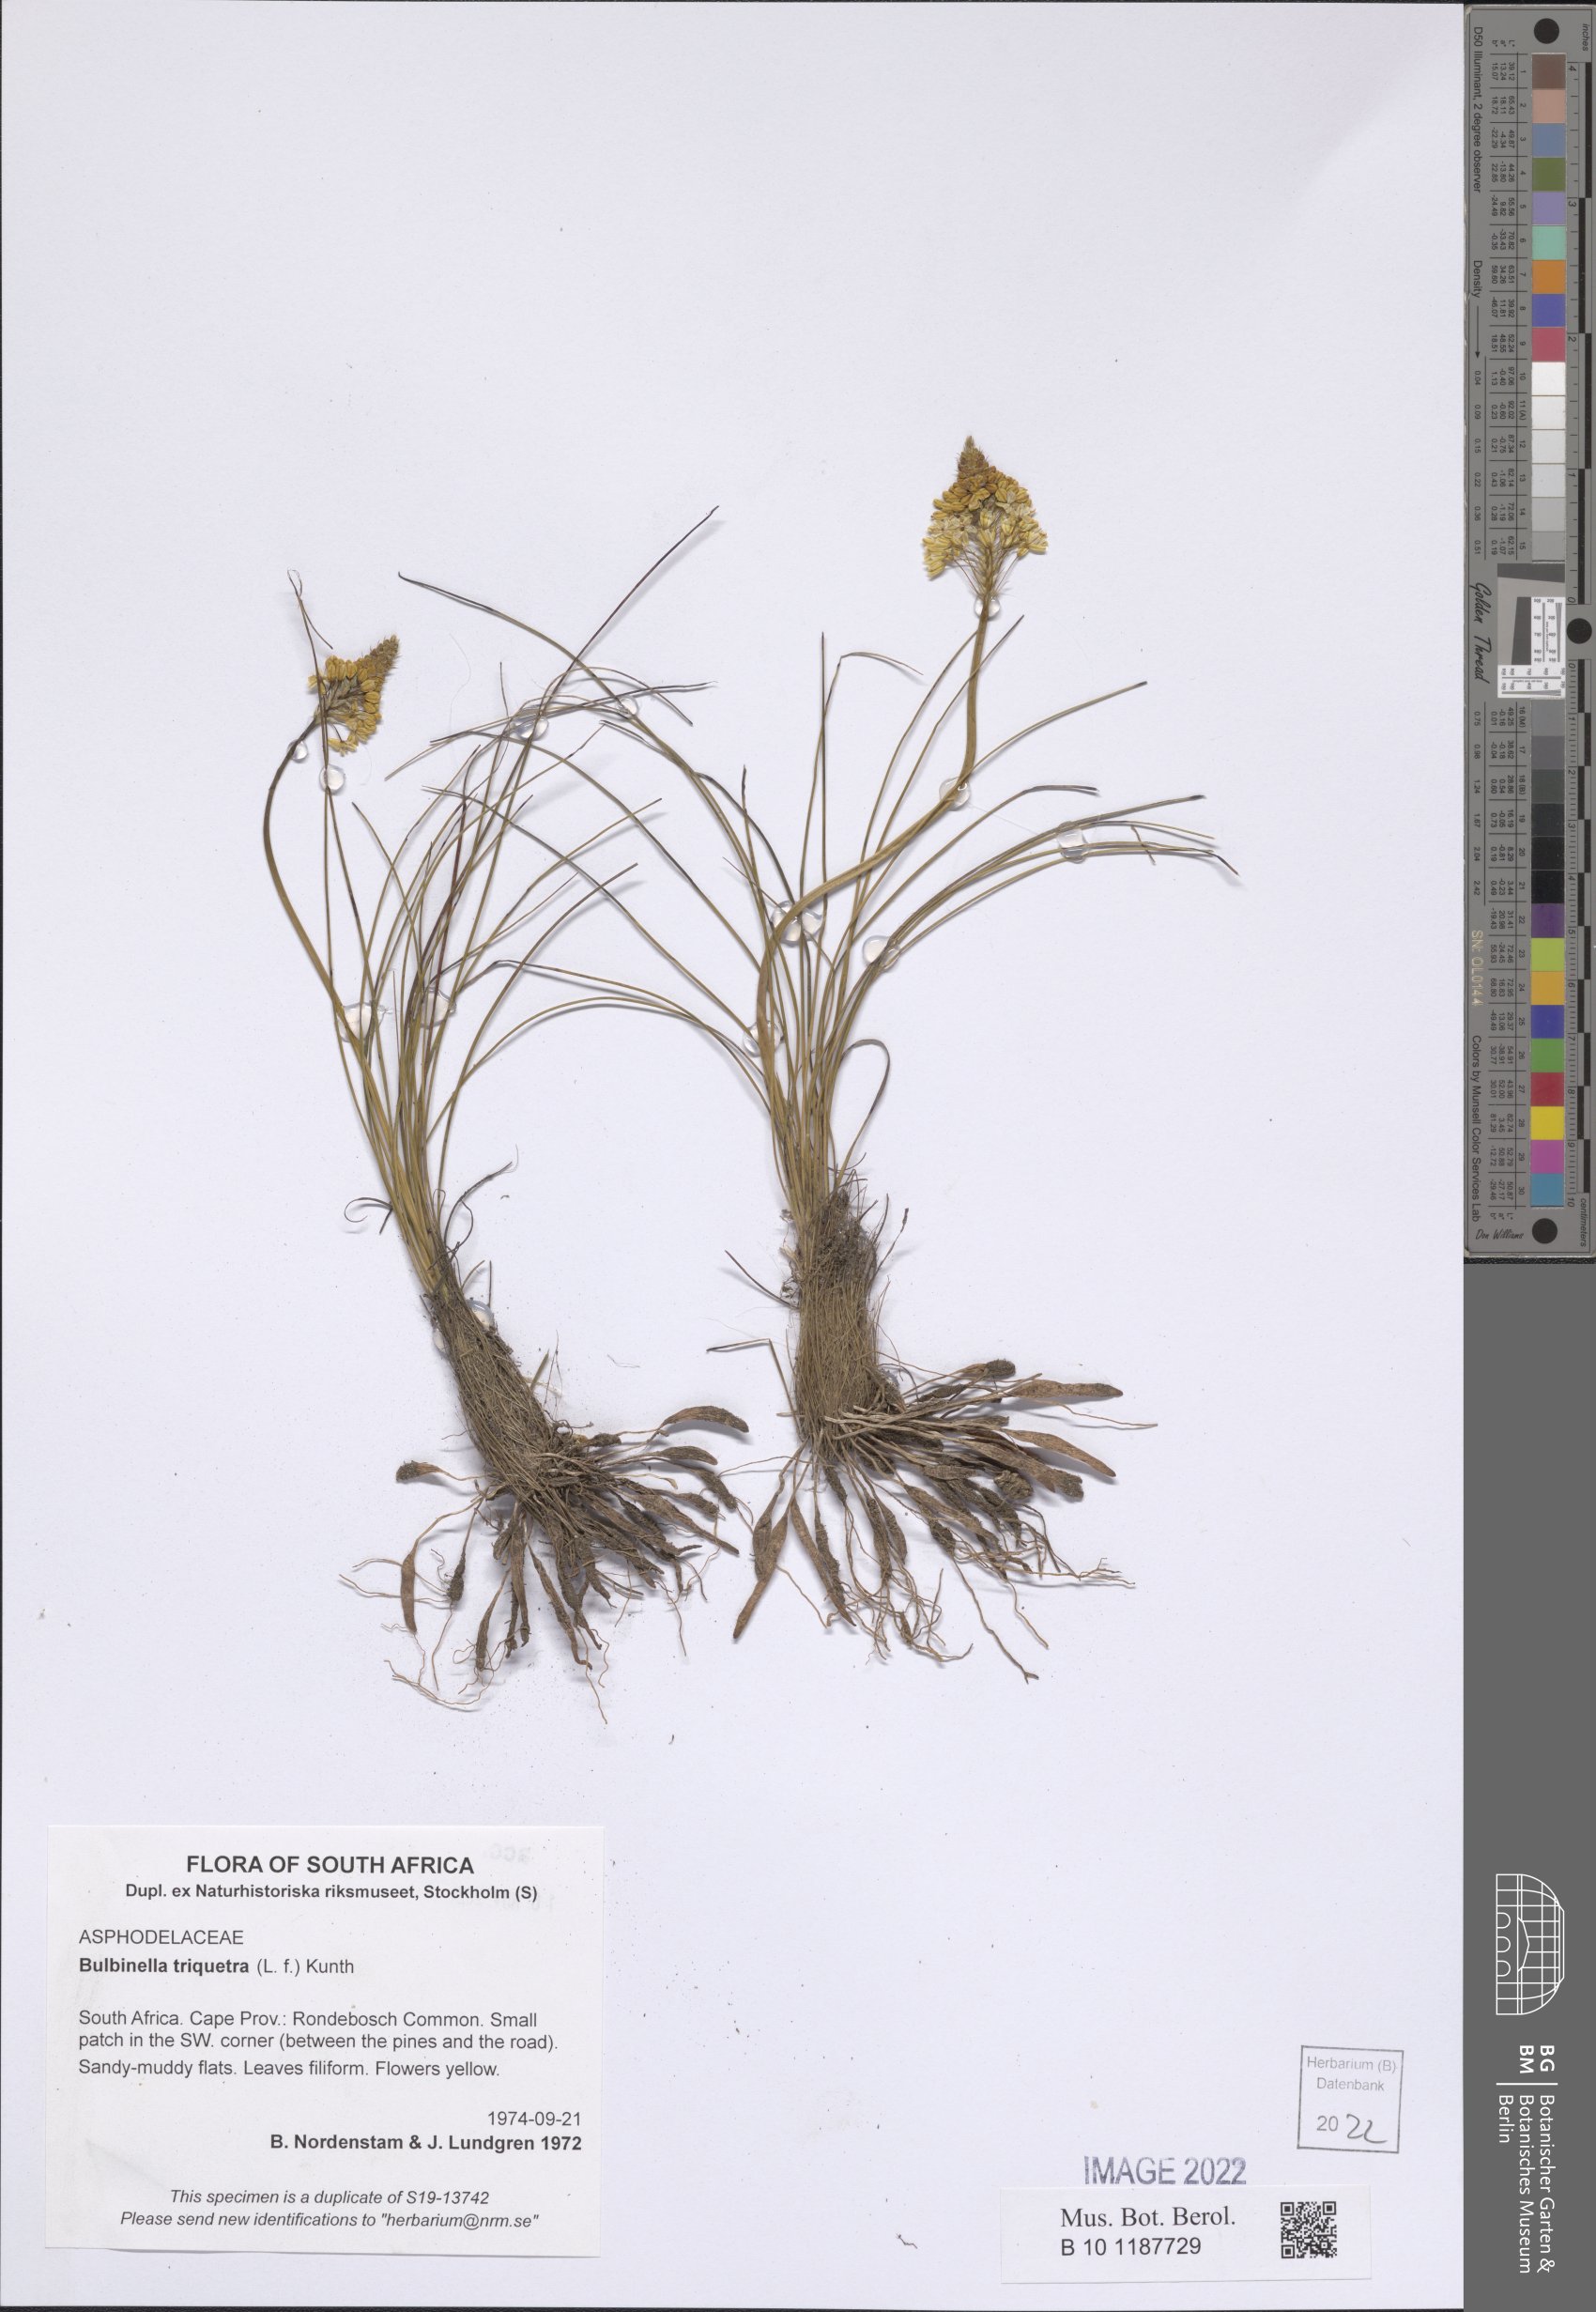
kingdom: Plantae
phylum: Tracheophyta
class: Liliopsida
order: Asparagales
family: Asphodelaceae
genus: Bulbinella
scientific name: Bulbinella triquetra
